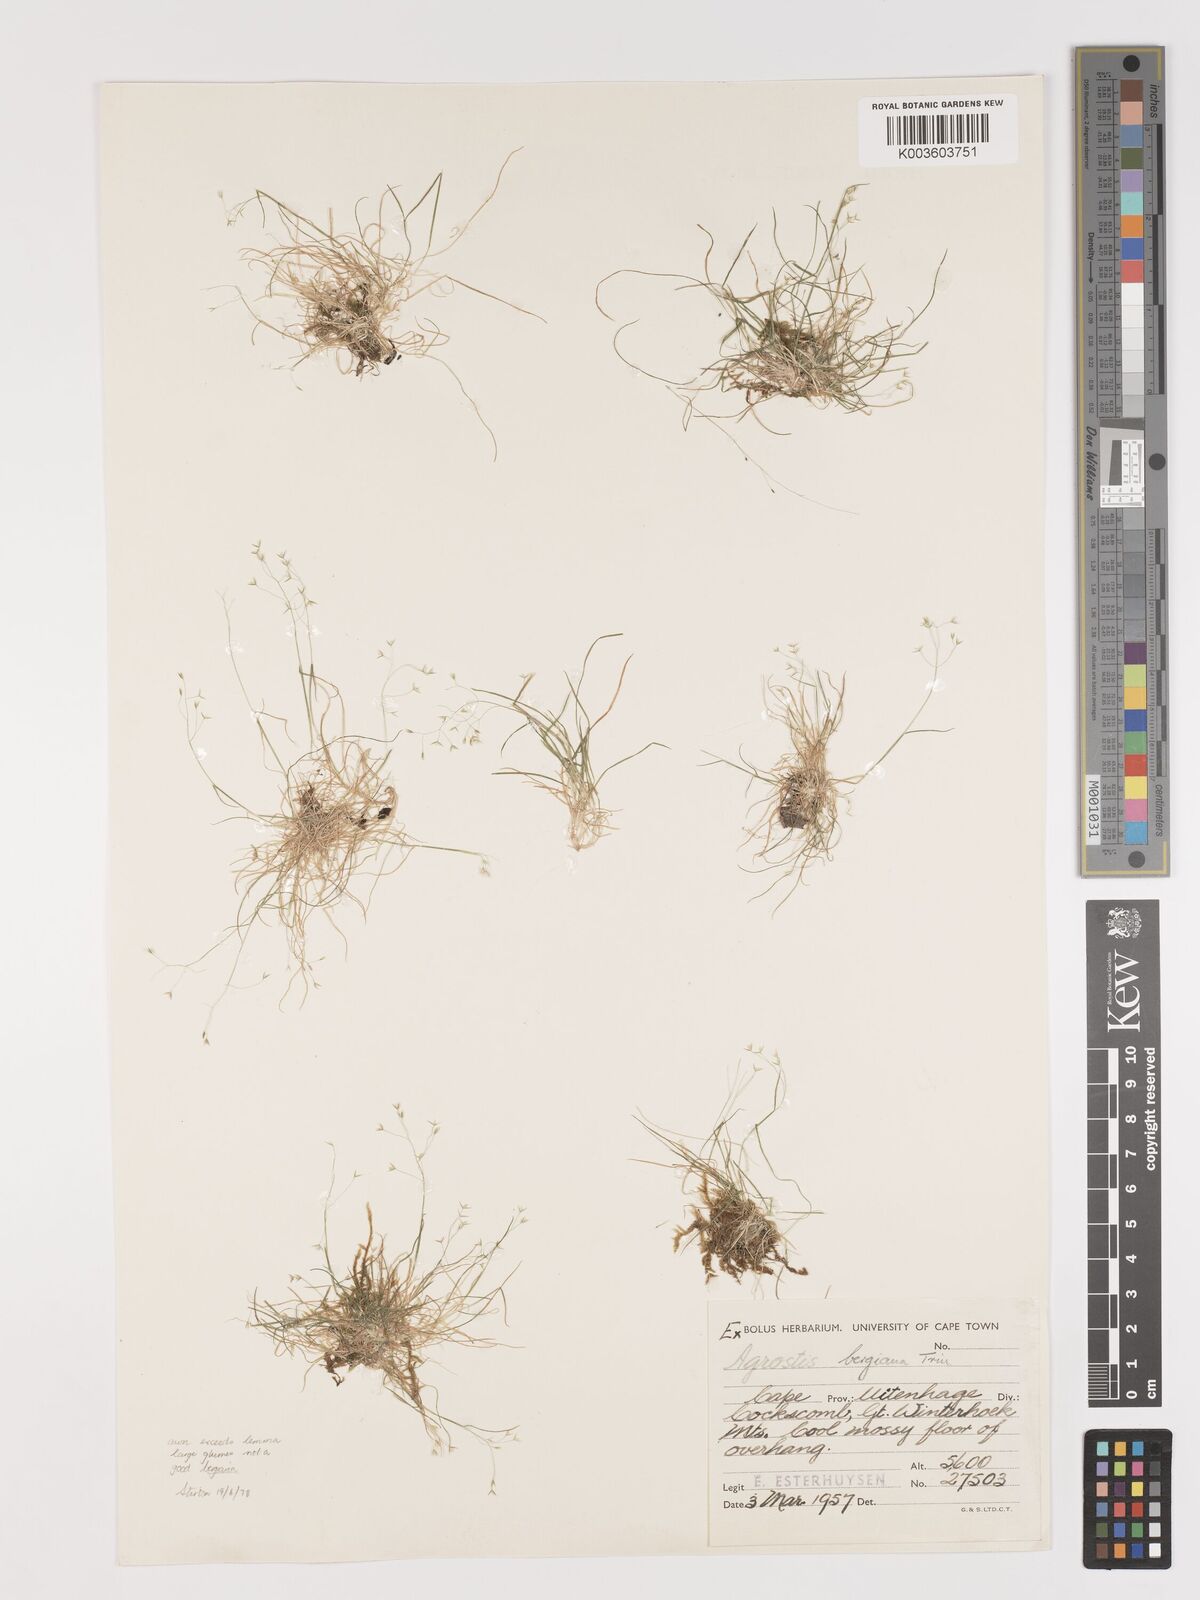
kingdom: Plantae
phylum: Tracheophyta
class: Liliopsida
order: Poales
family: Poaceae
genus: Agrostis
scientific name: Agrostis bergiana
